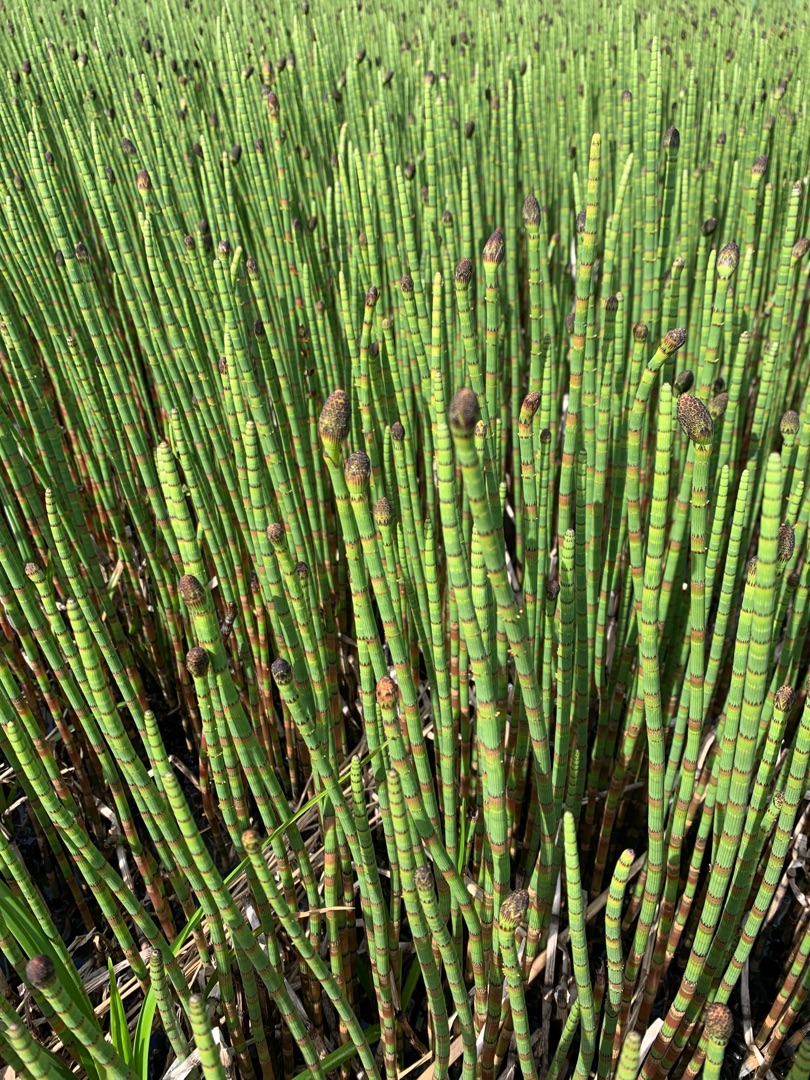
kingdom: Plantae
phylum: Tracheophyta
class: Polypodiopsida
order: Equisetales
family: Equisetaceae
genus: Equisetum
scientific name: Equisetum fluviatile
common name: Dynd-padderok
